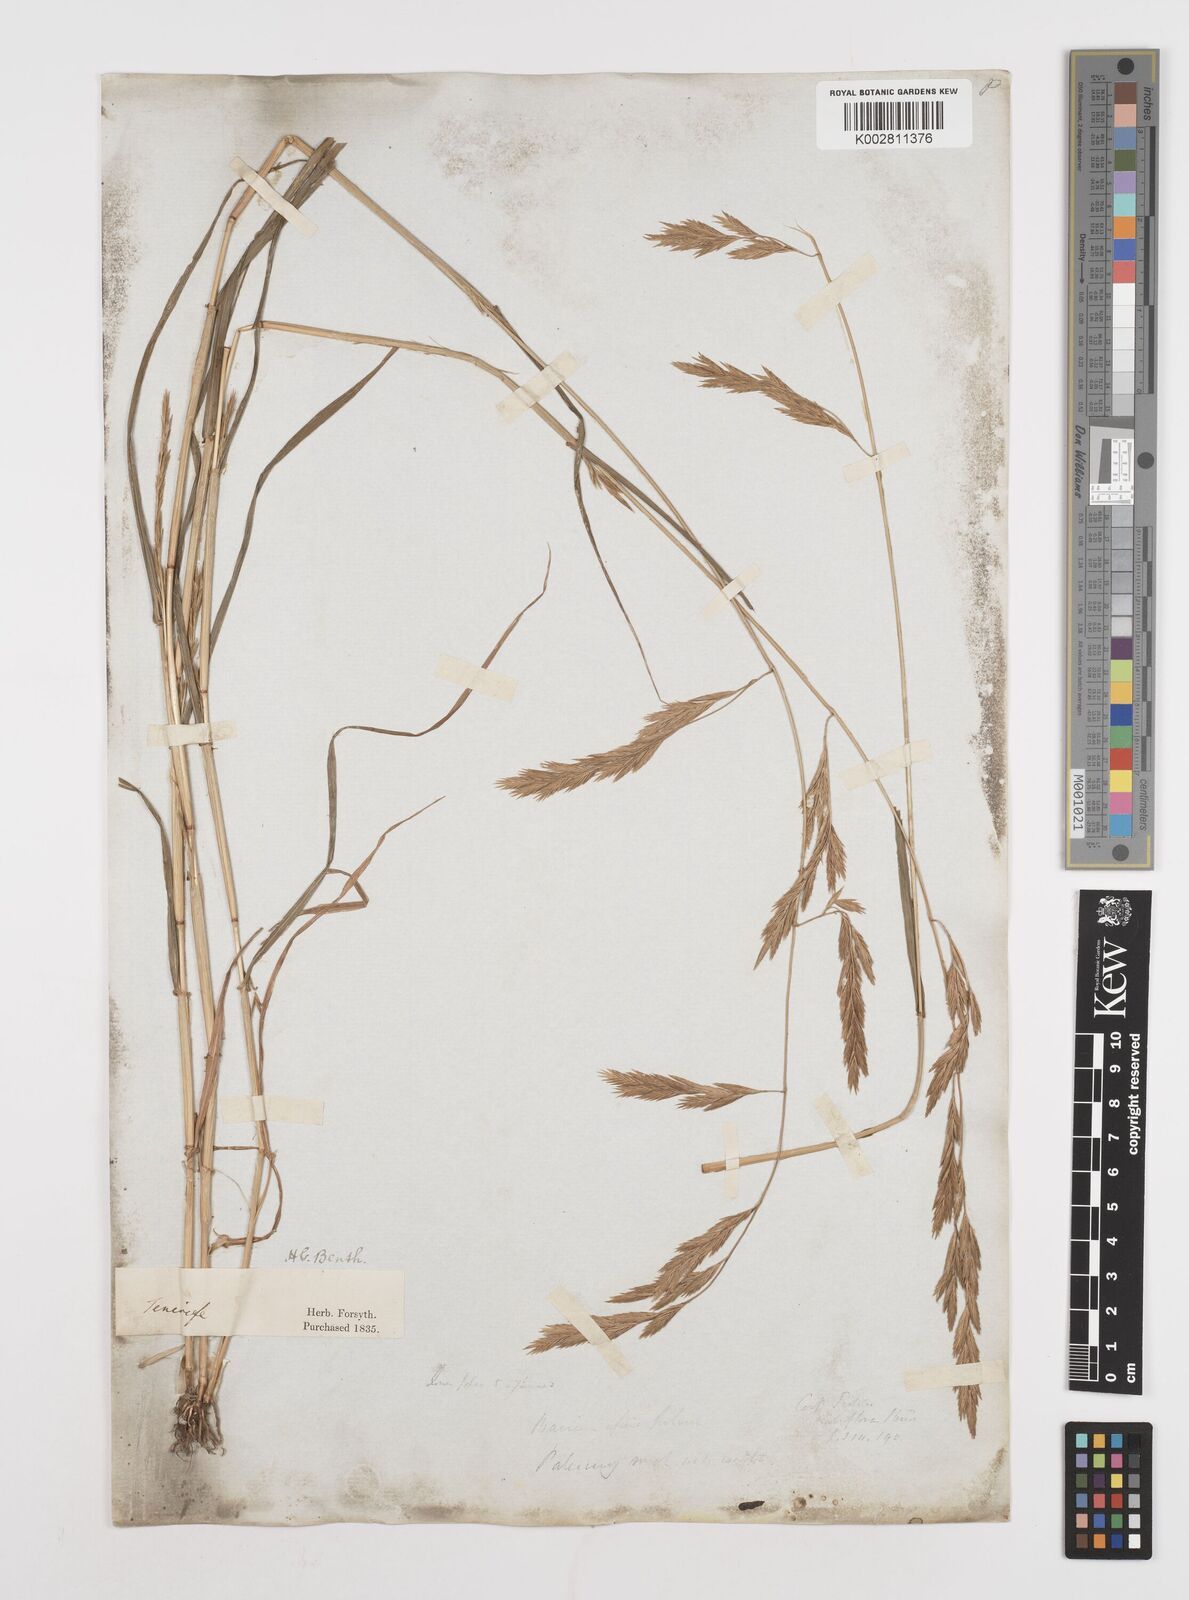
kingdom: Plantae
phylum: Tracheophyta
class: Liliopsida
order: Poales
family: Poaceae
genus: Castellia
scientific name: Castellia tuberculosa
